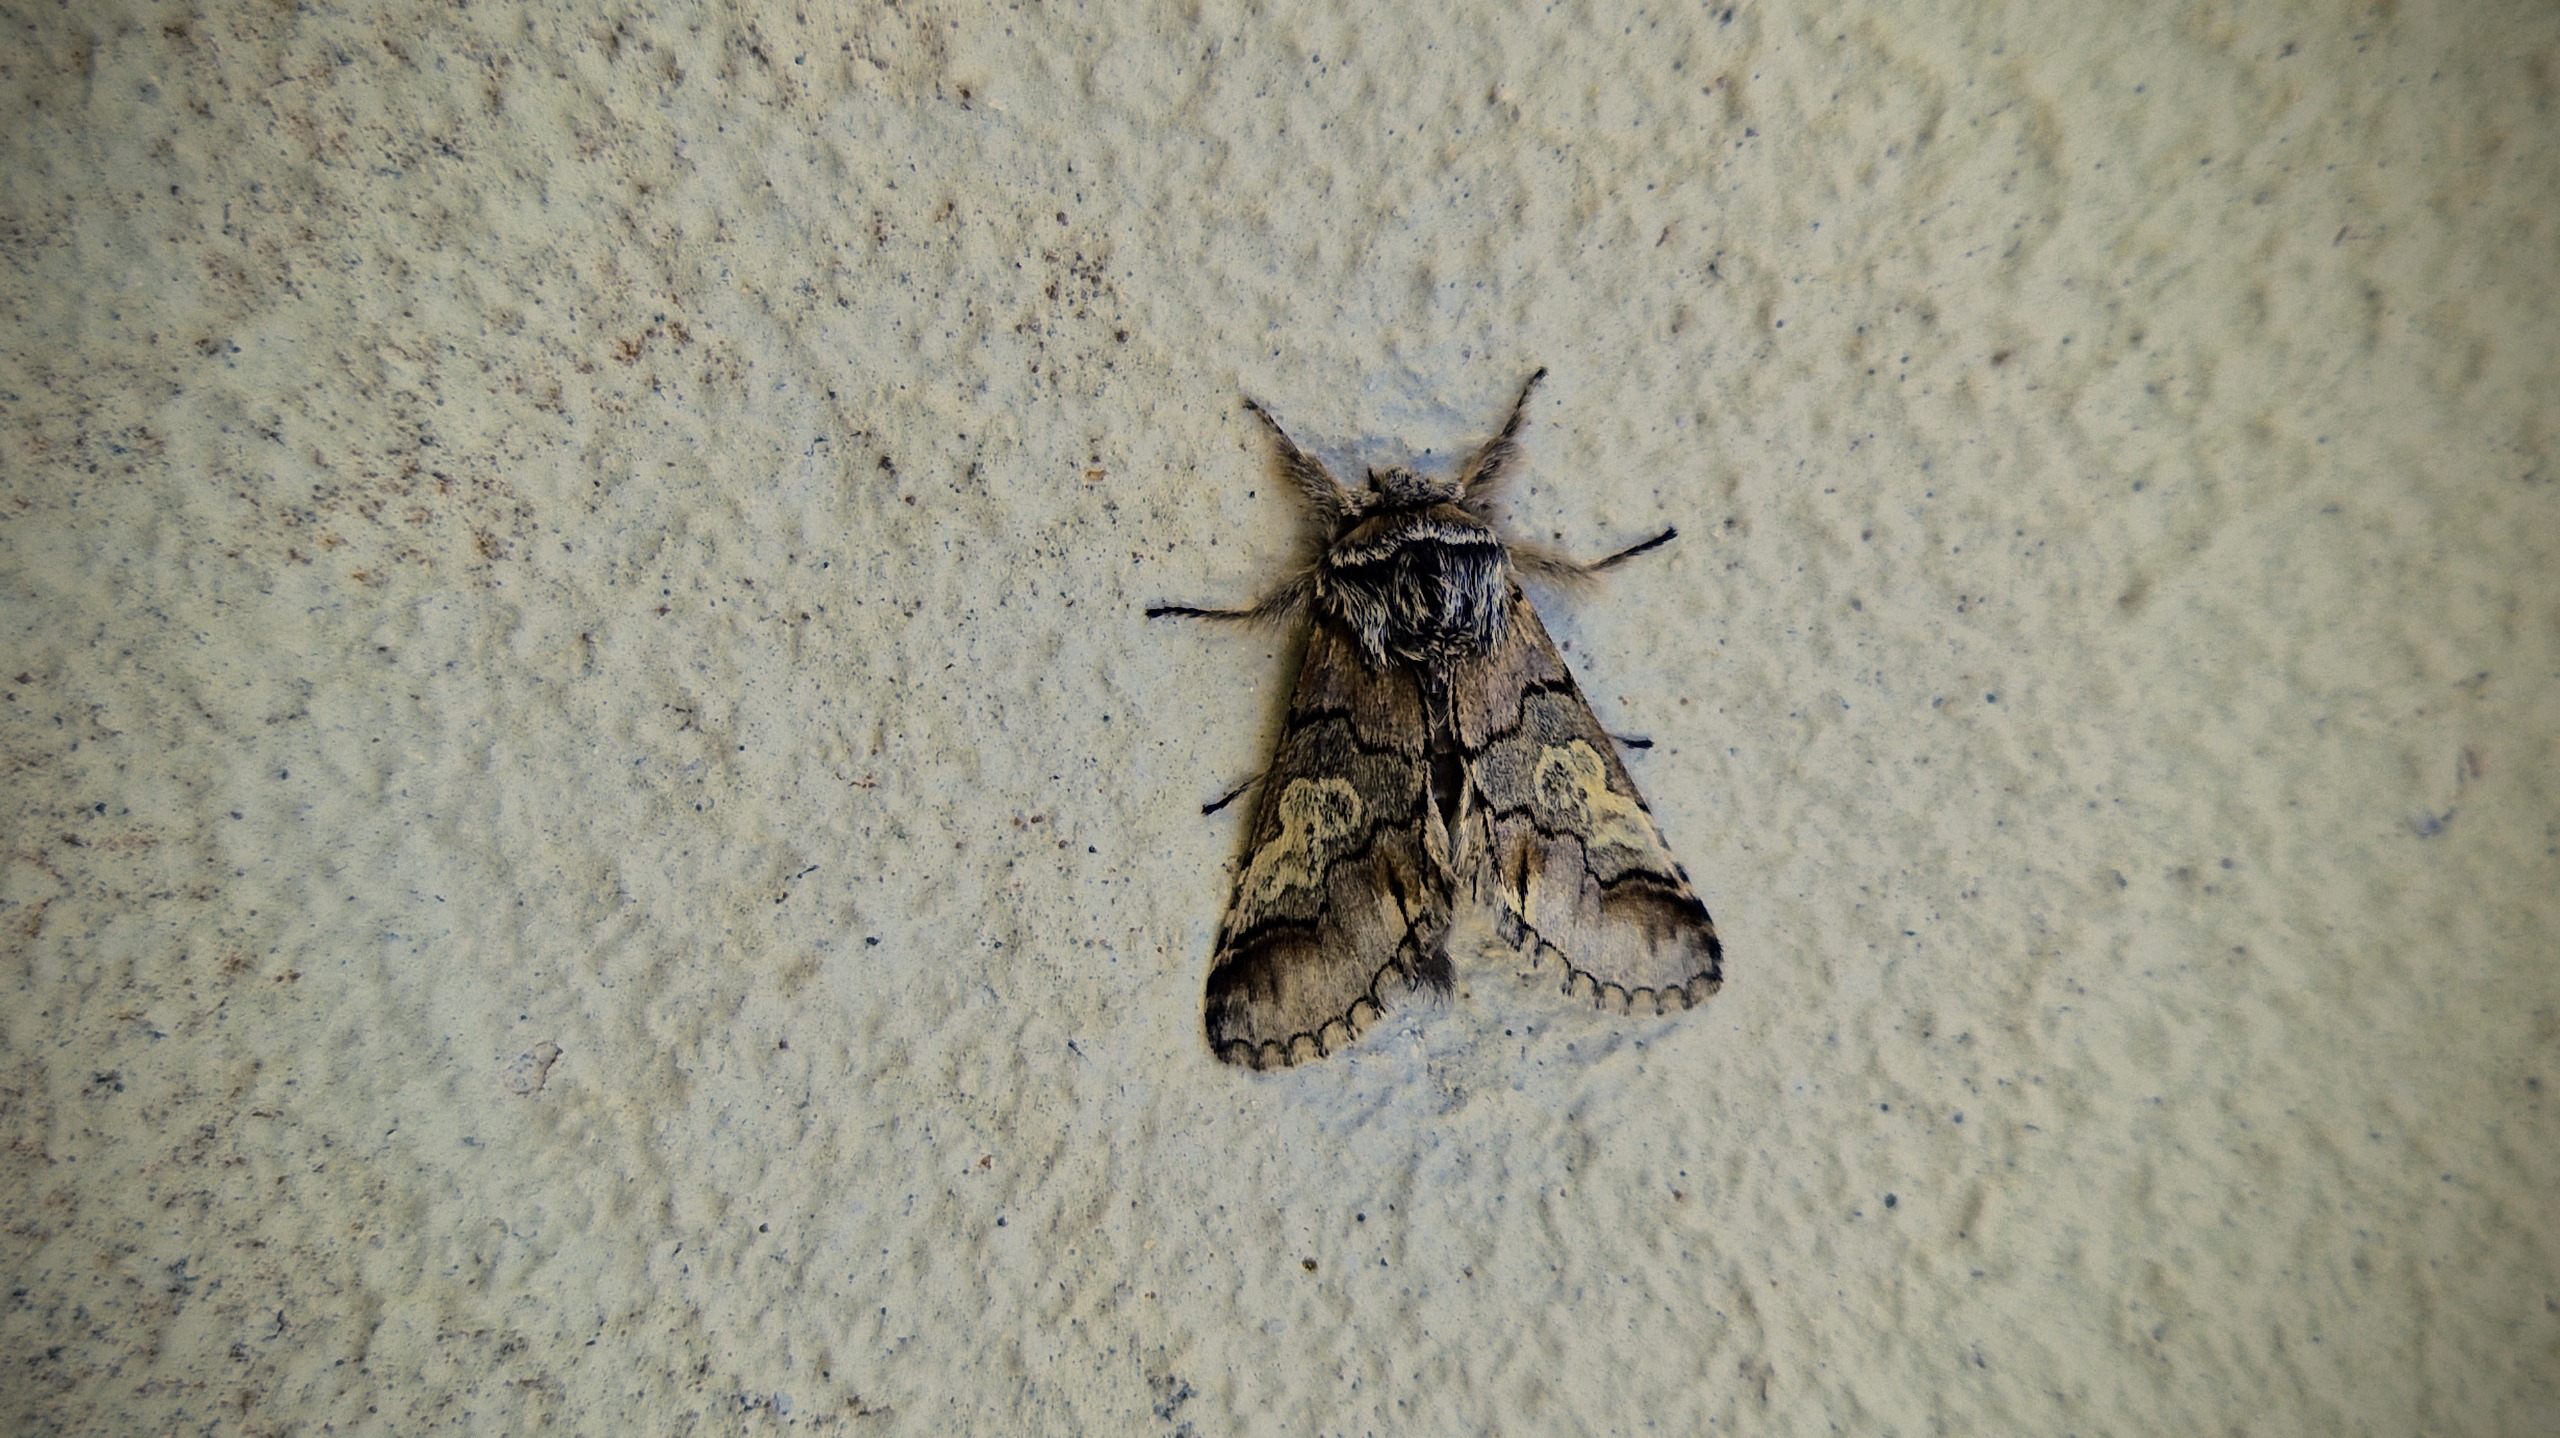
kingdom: Animalia
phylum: Arthropoda
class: Insecta
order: Lepidoptera
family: Noctuidae
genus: Diloba
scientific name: Diloba caeruleocephala
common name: Blåhoved
